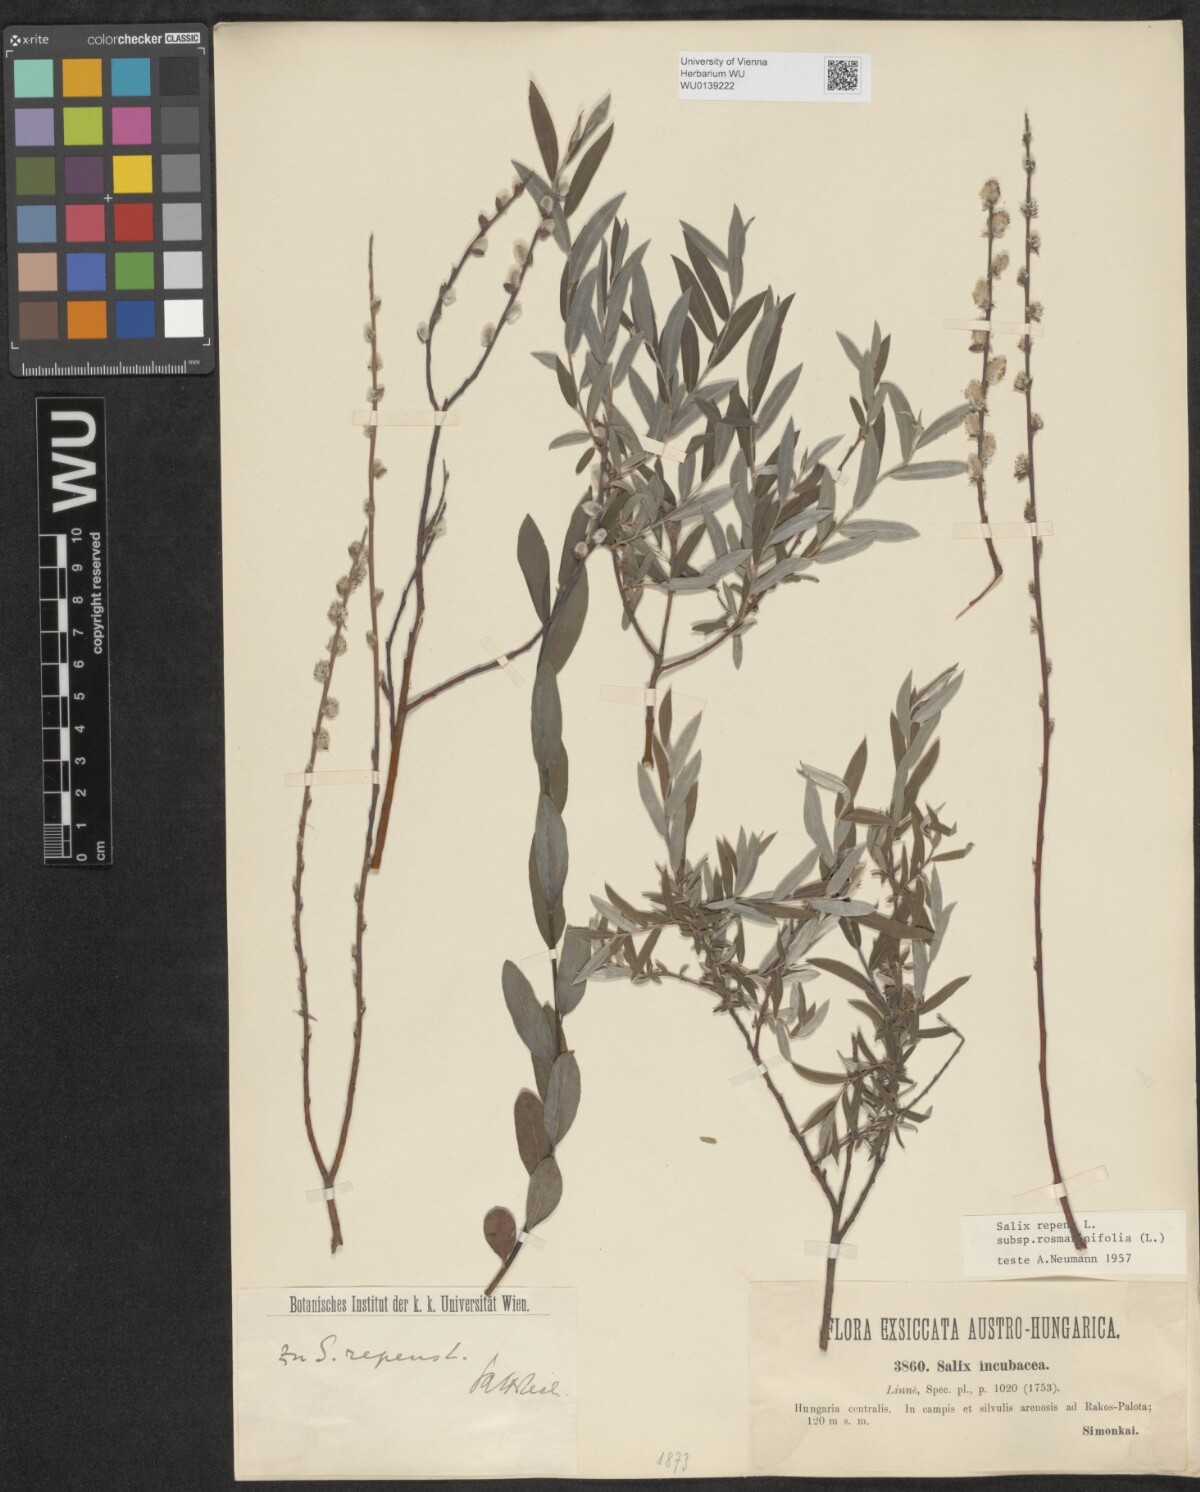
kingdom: Plantae
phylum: Tracheophyta
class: Magnoliopsida
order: Malpighiales
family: Salicaceae
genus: Salix
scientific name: Salix repens
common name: Creeping willow
